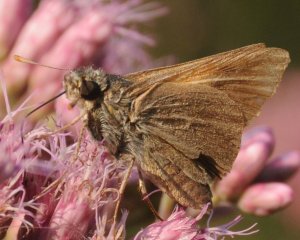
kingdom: Animalia
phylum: Arthropoda
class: Insecta
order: Lepidoptera
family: Hesperiidae
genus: Euphyes
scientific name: Euphyes vestris
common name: Dun Skipper
